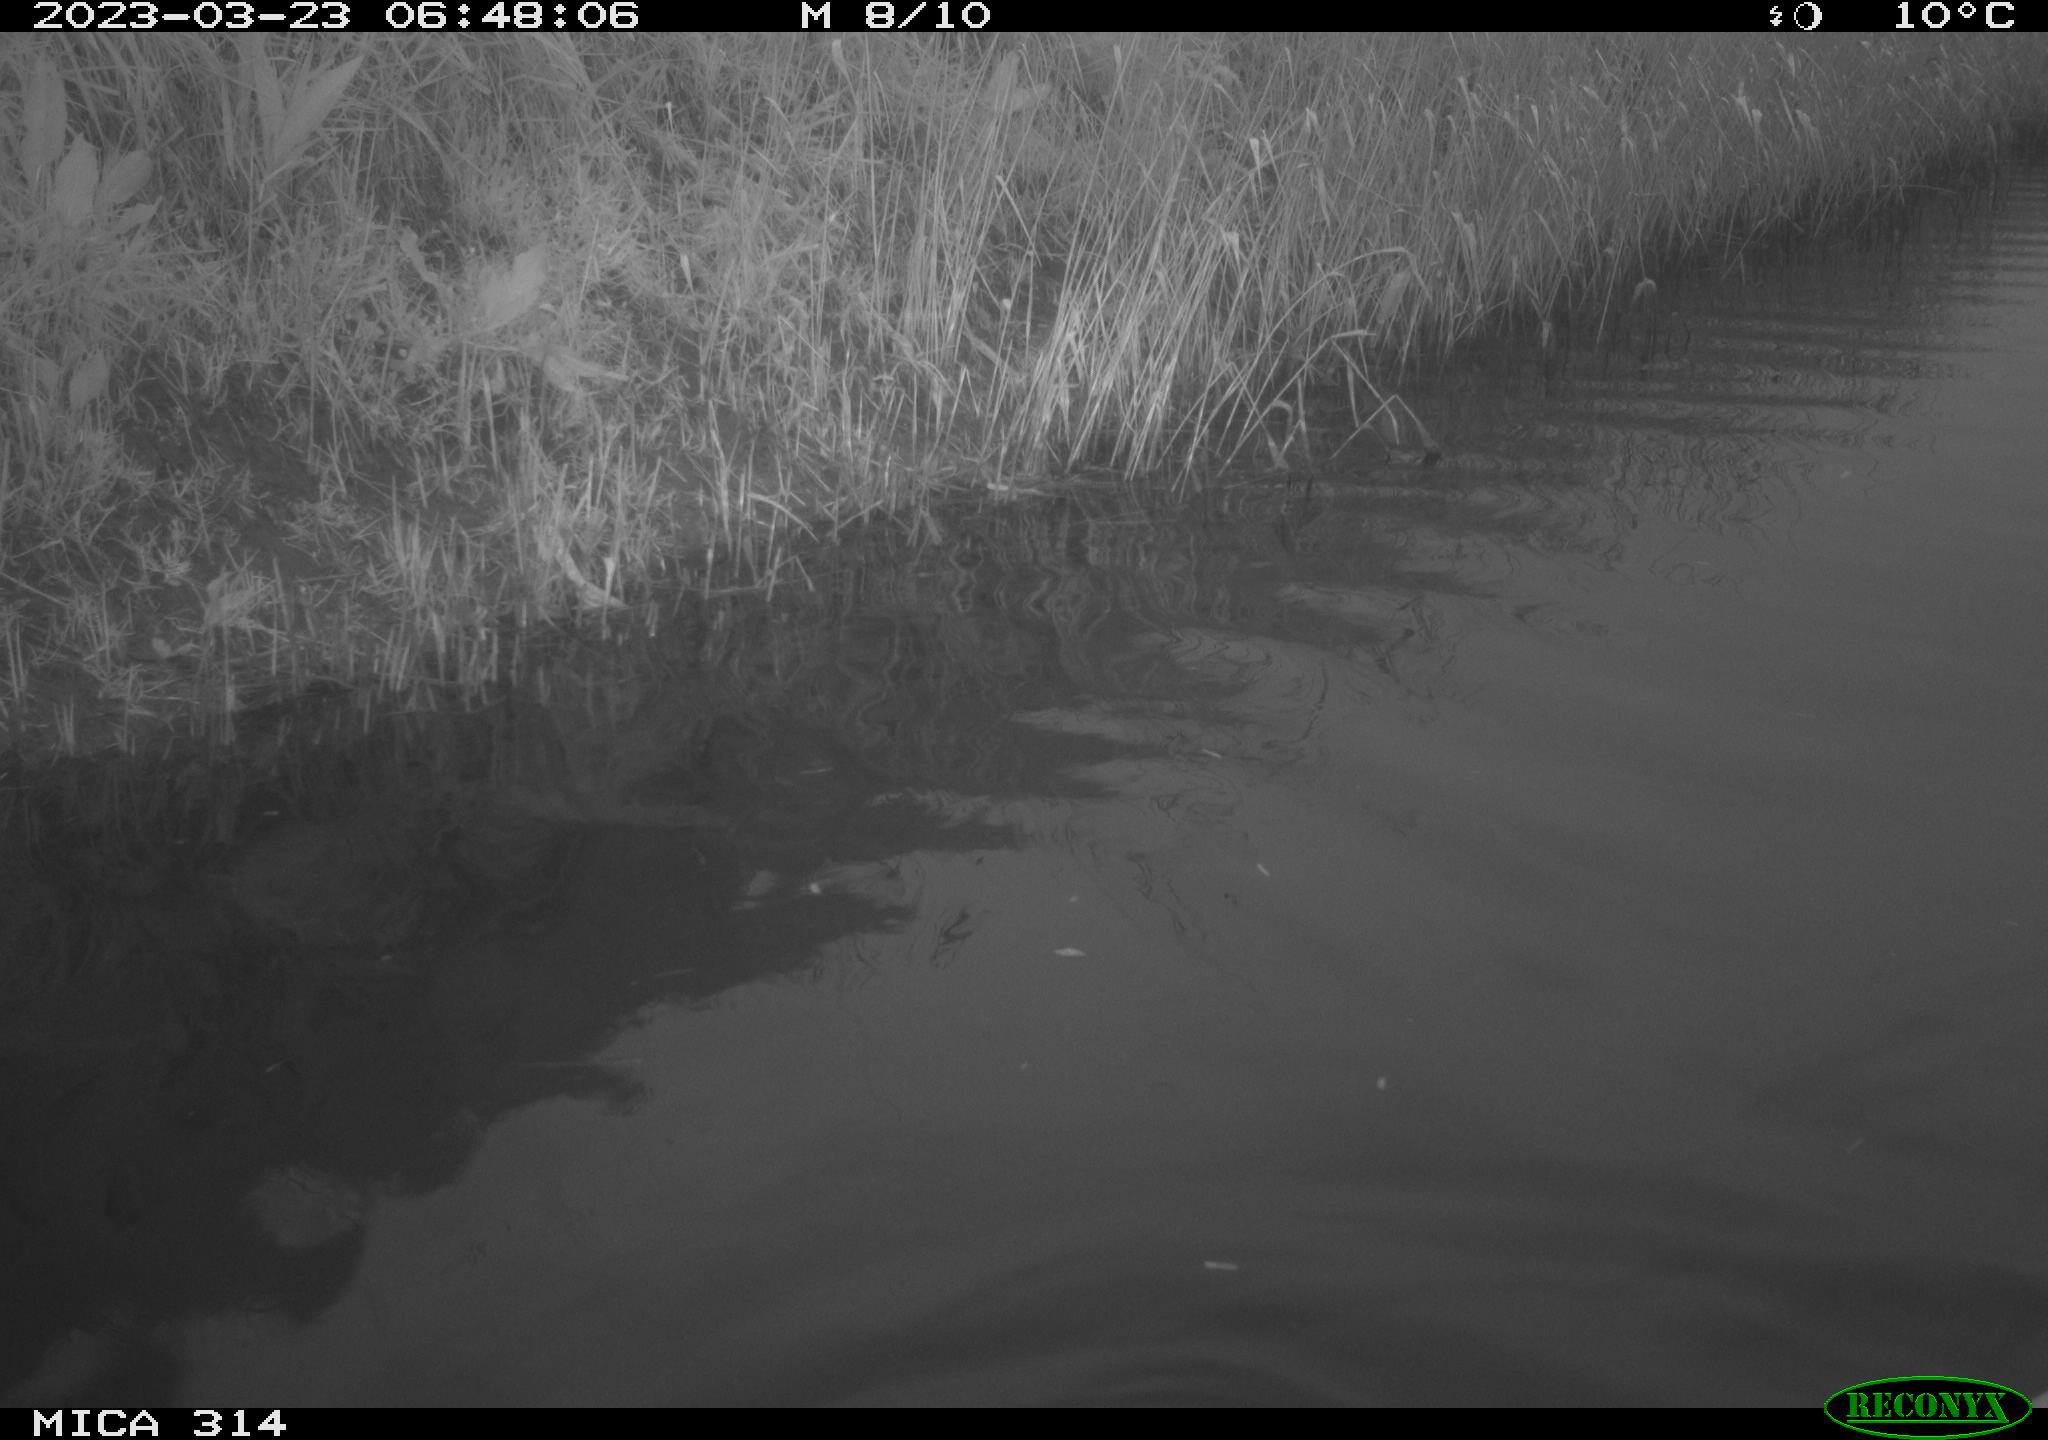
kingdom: Animalia
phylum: Chordata
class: Aves
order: Anseriformes
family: Anatidae
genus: Anas
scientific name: Anas
